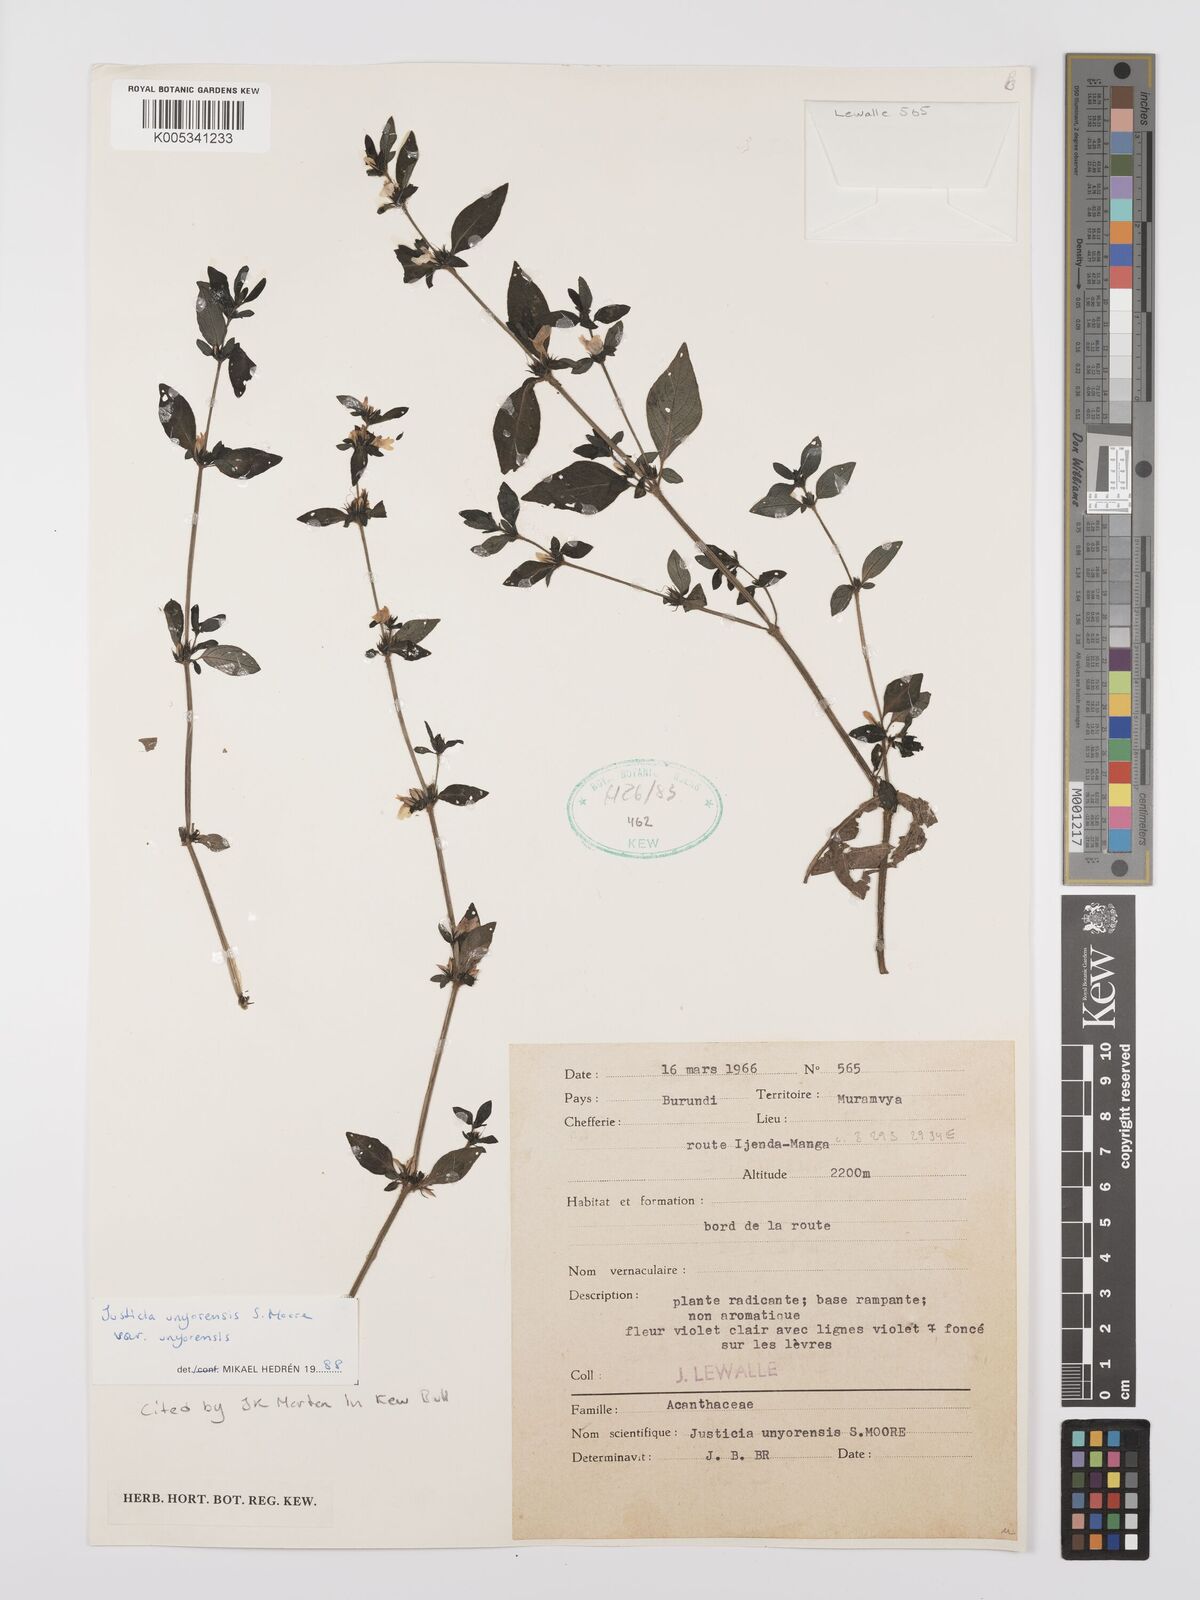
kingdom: Plantae
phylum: Tracheophyta
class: Magnoliopsida
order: Lamiales
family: Acanthaceae
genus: Justicia
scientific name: Justicia unyorensis
